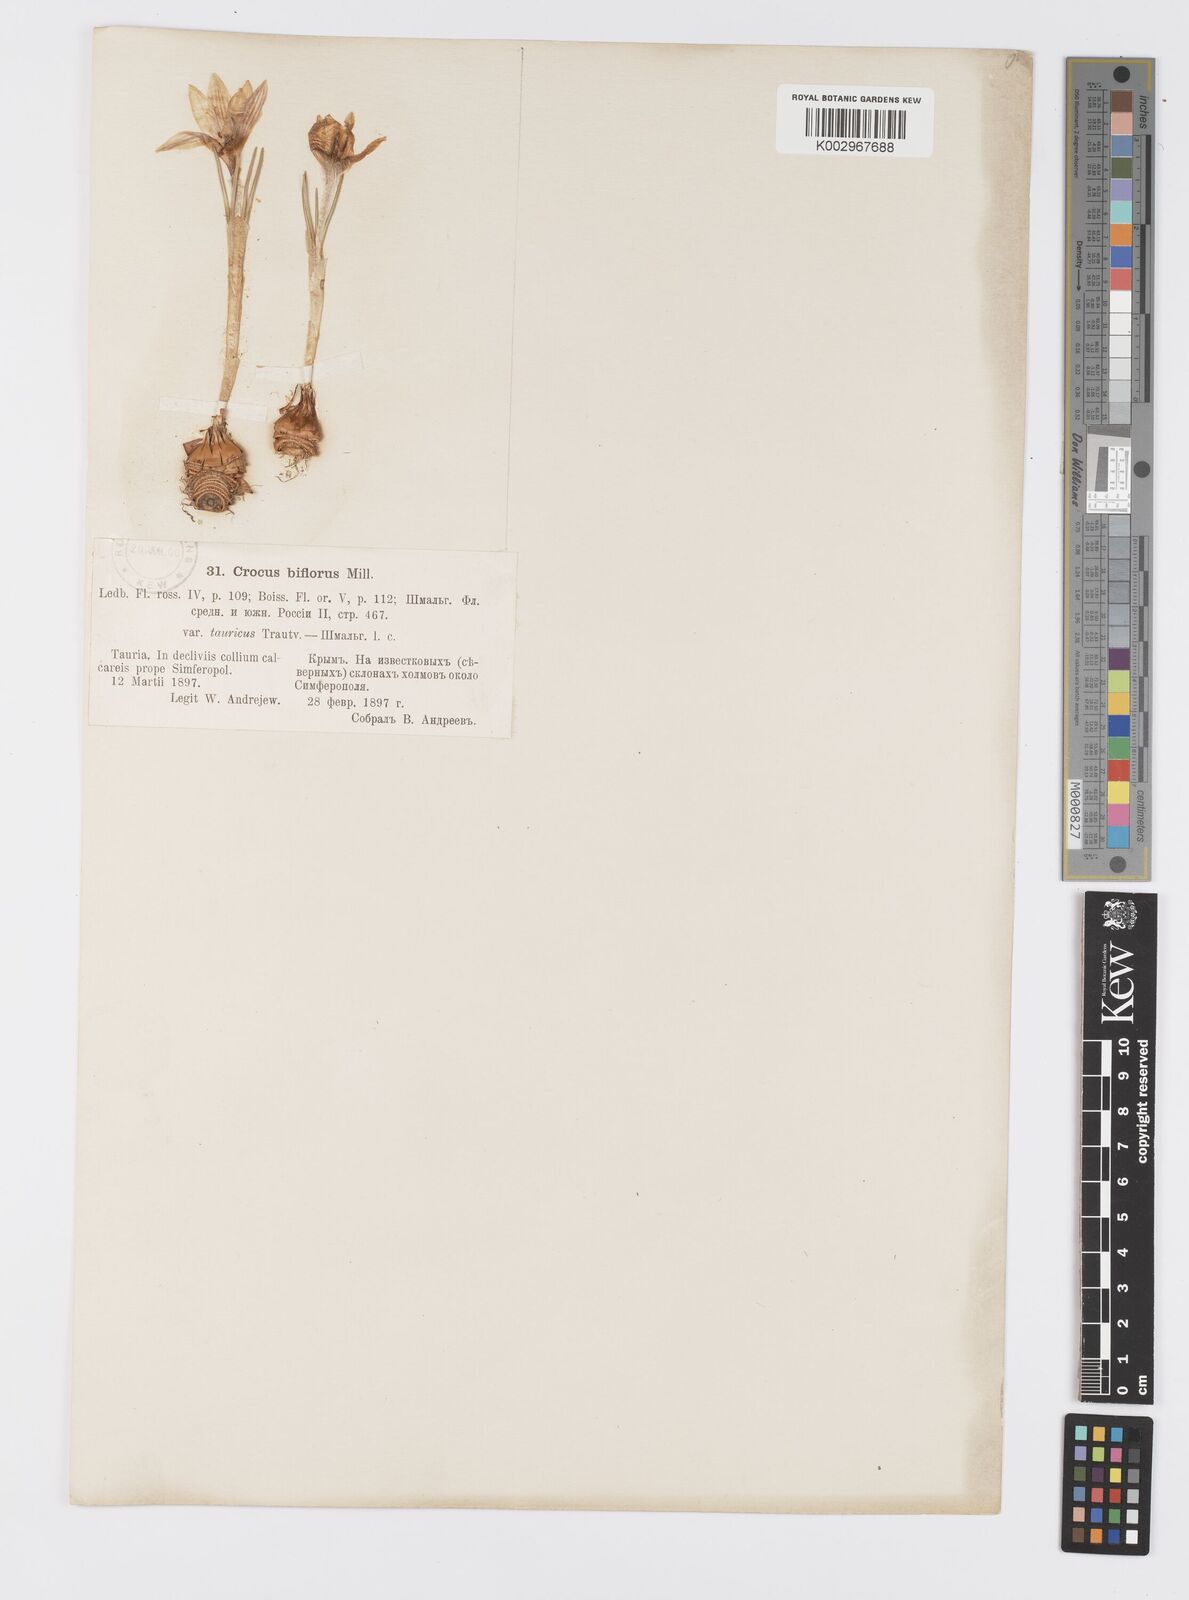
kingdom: Plantae
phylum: Tracheophyta
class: Liliopsida
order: Asparagales
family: Iridaceae
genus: Crocus
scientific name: Crocus biflorus
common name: Silvery crocus
